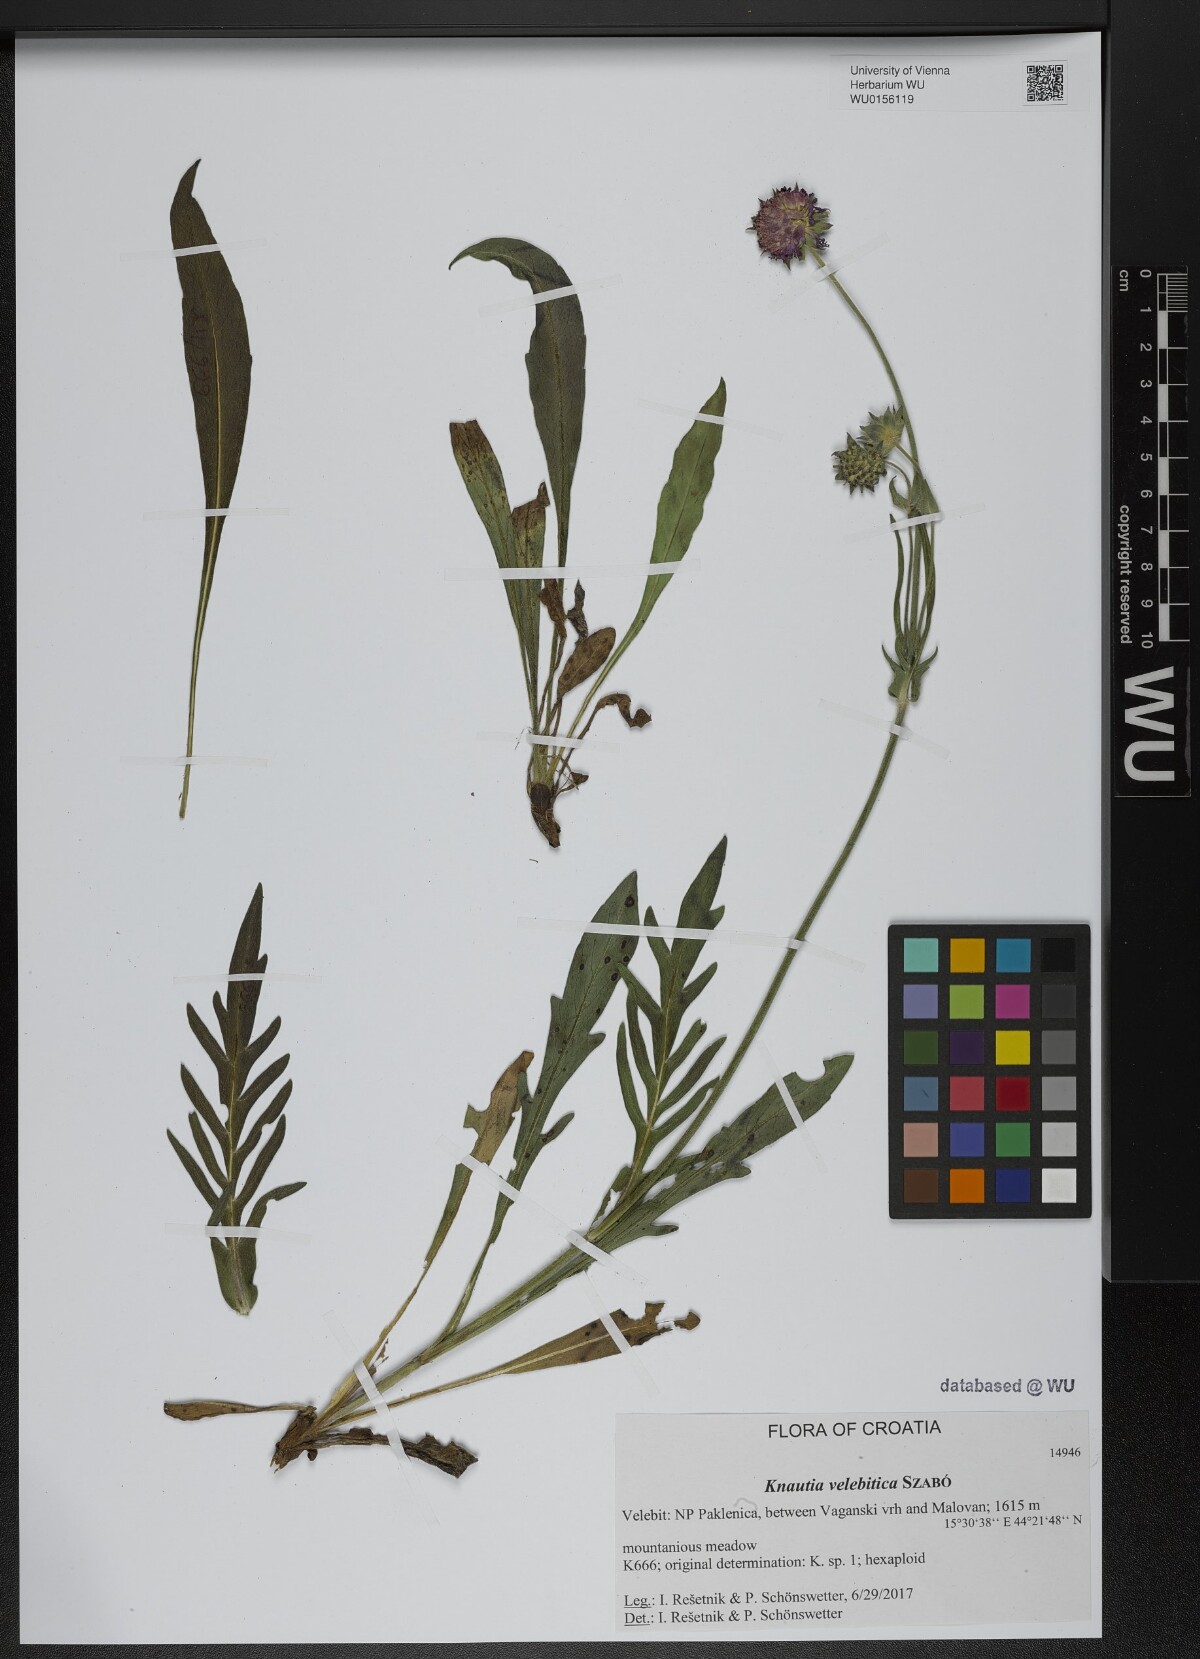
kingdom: Plantae
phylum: Tracheophyta
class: Magnoliopsida
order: Dipsacales
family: Caprifoliaceae
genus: Knautia
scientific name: Knautia velebitica
